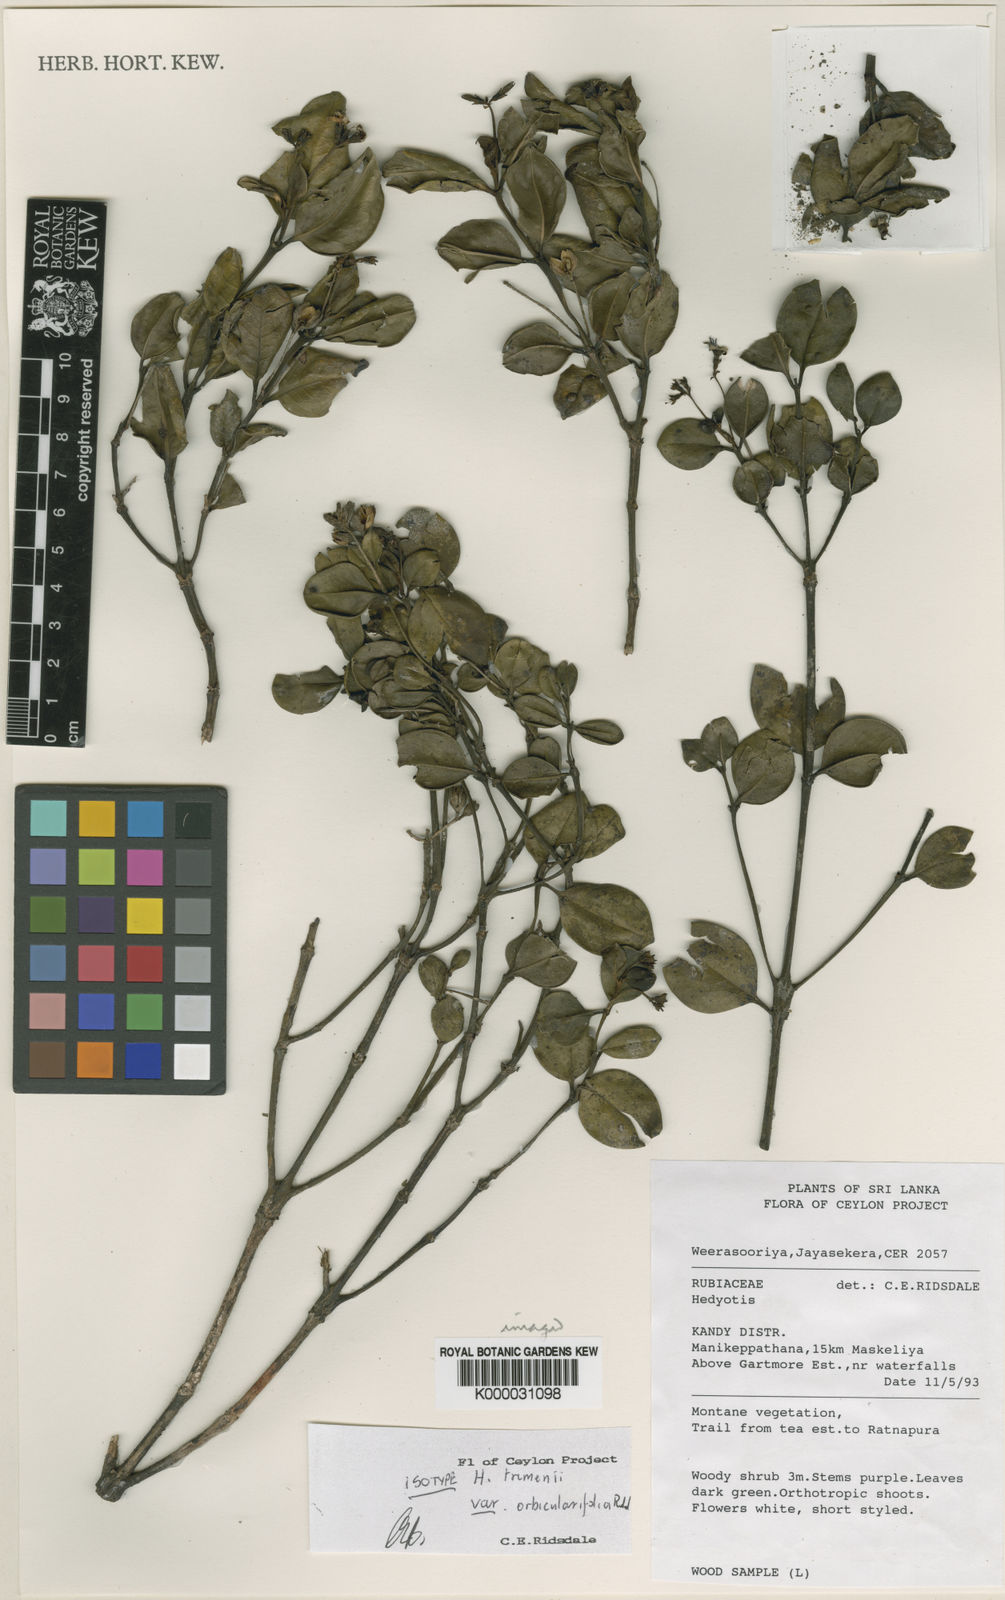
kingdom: Plantae
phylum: Tracheophyta
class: Magnoliopsida
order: Gentianales
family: Rubiaceae
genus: Hedyotis
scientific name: Hedyotis trimenii
